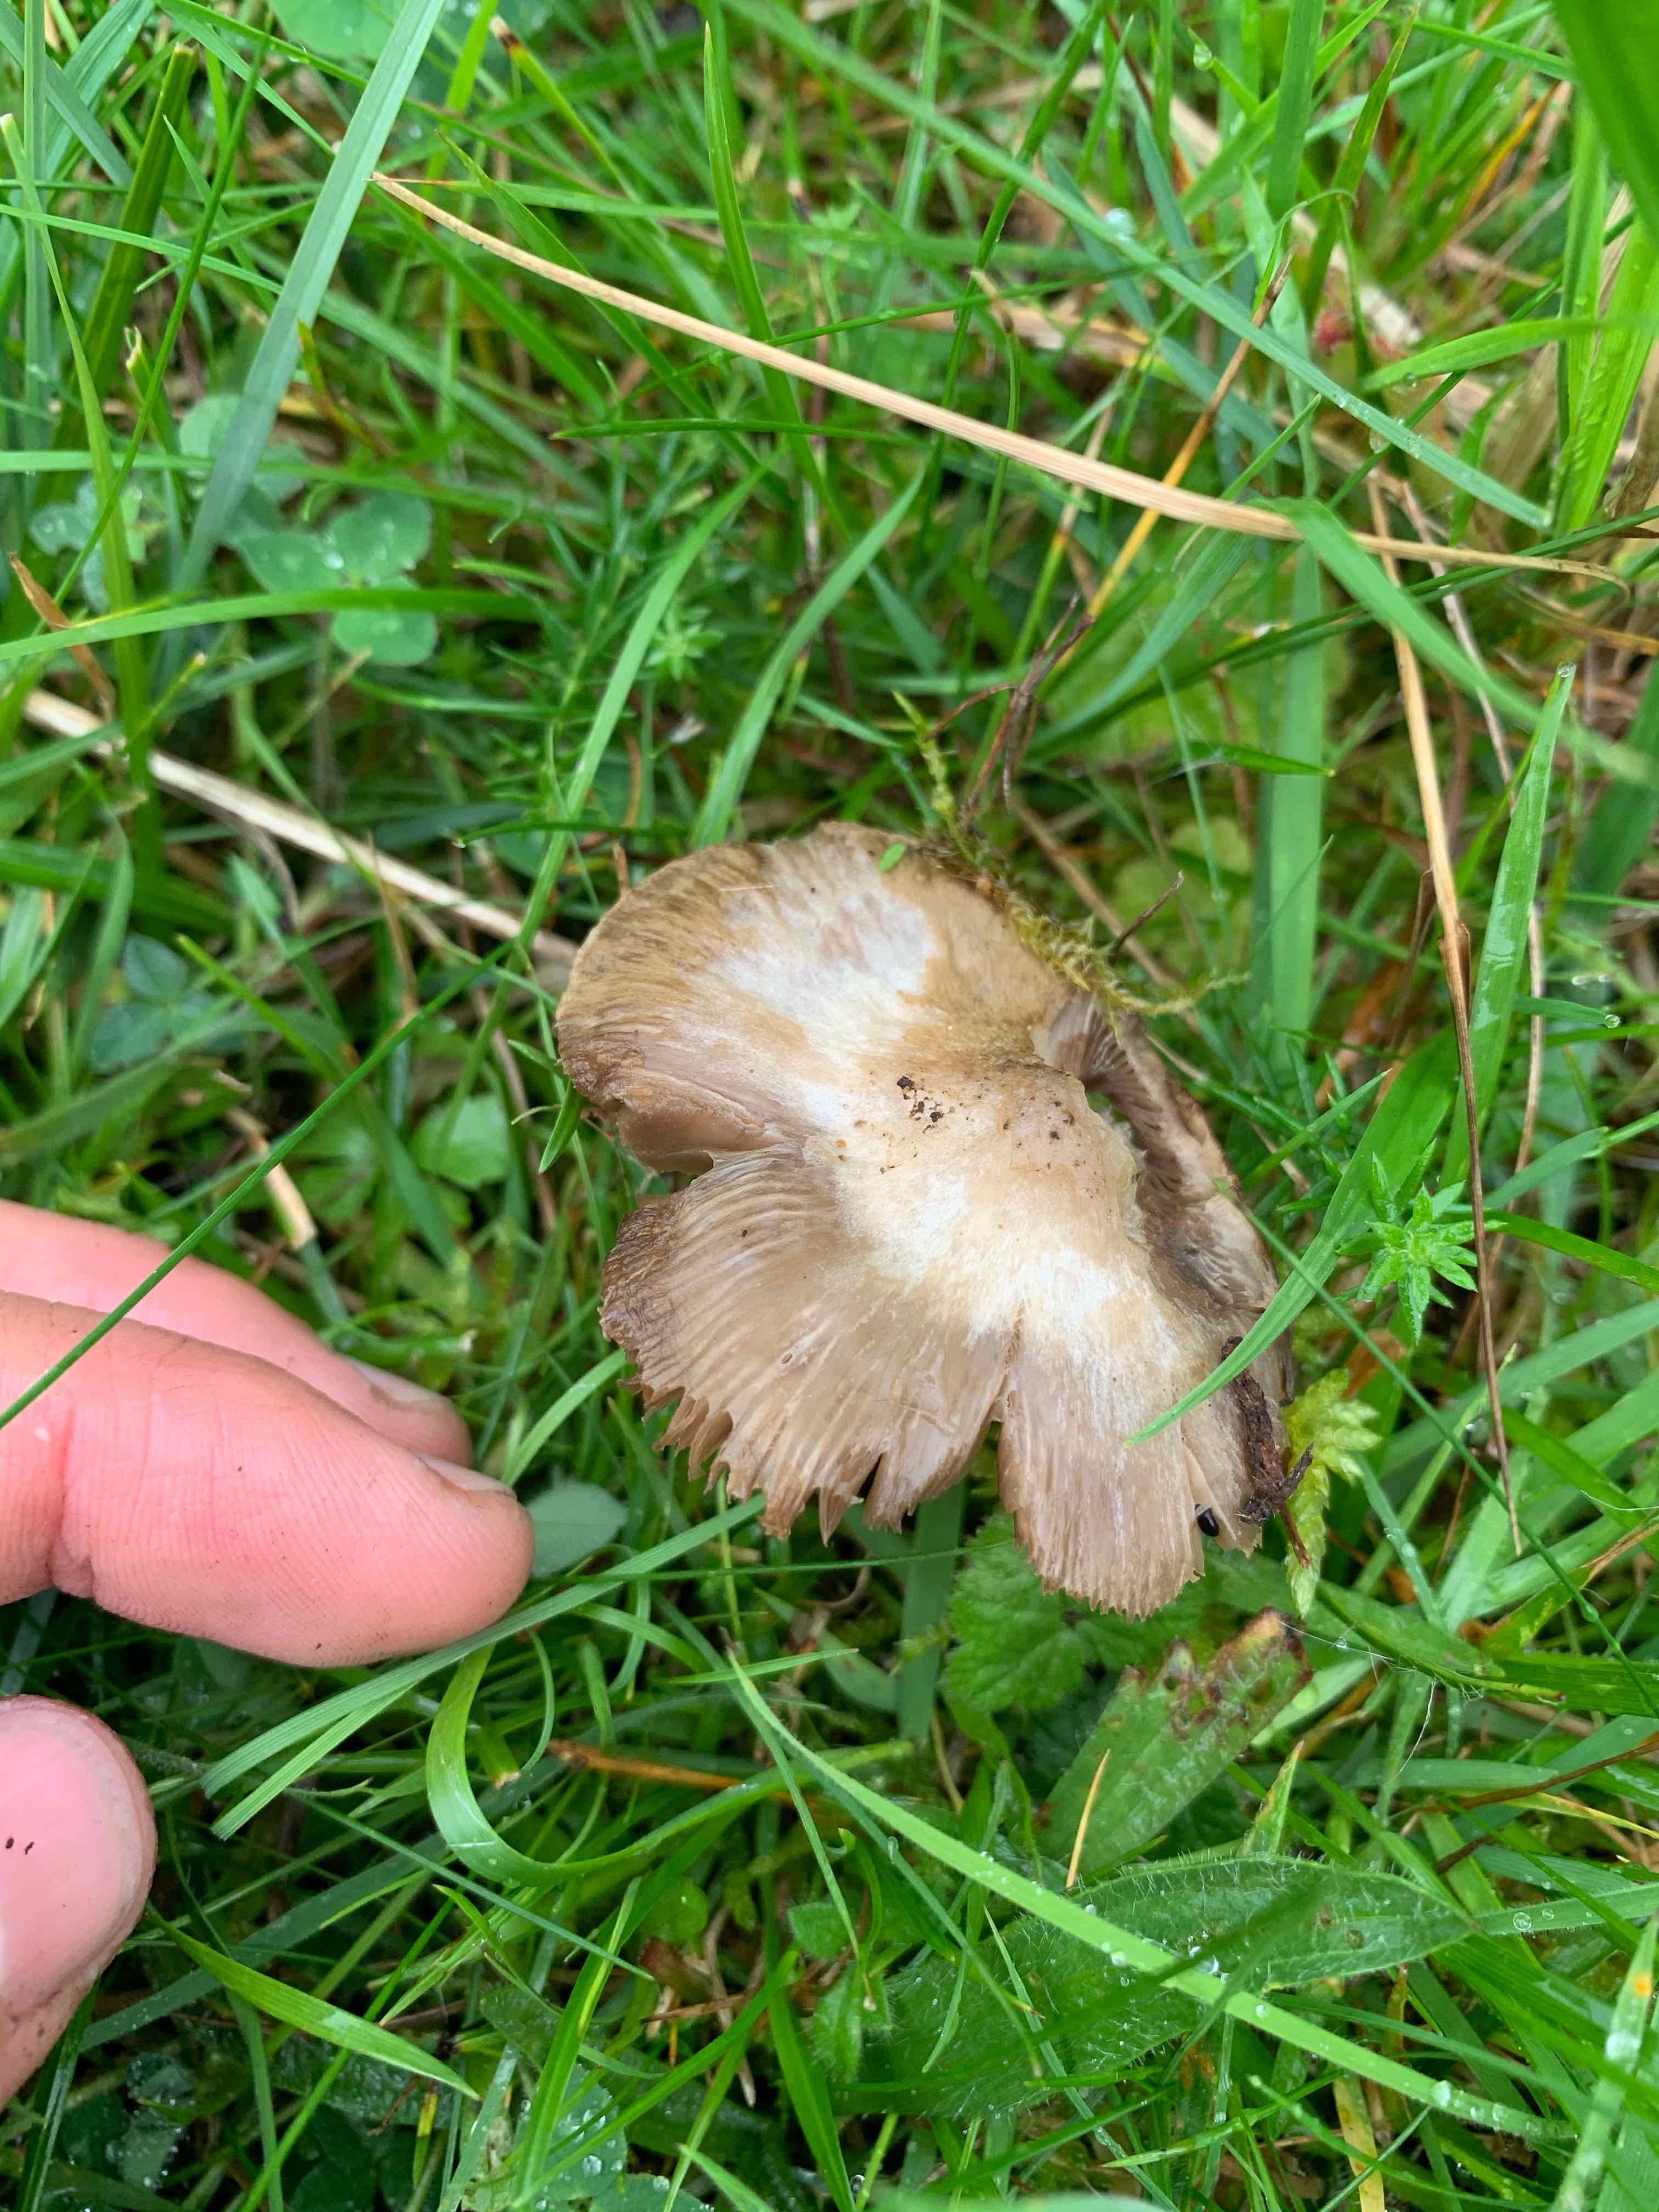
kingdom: Fungi
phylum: Basidiomycota
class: Agaricomycetes
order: Agaricales
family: Entolomataceae
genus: Entoloma
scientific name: Entoloma
